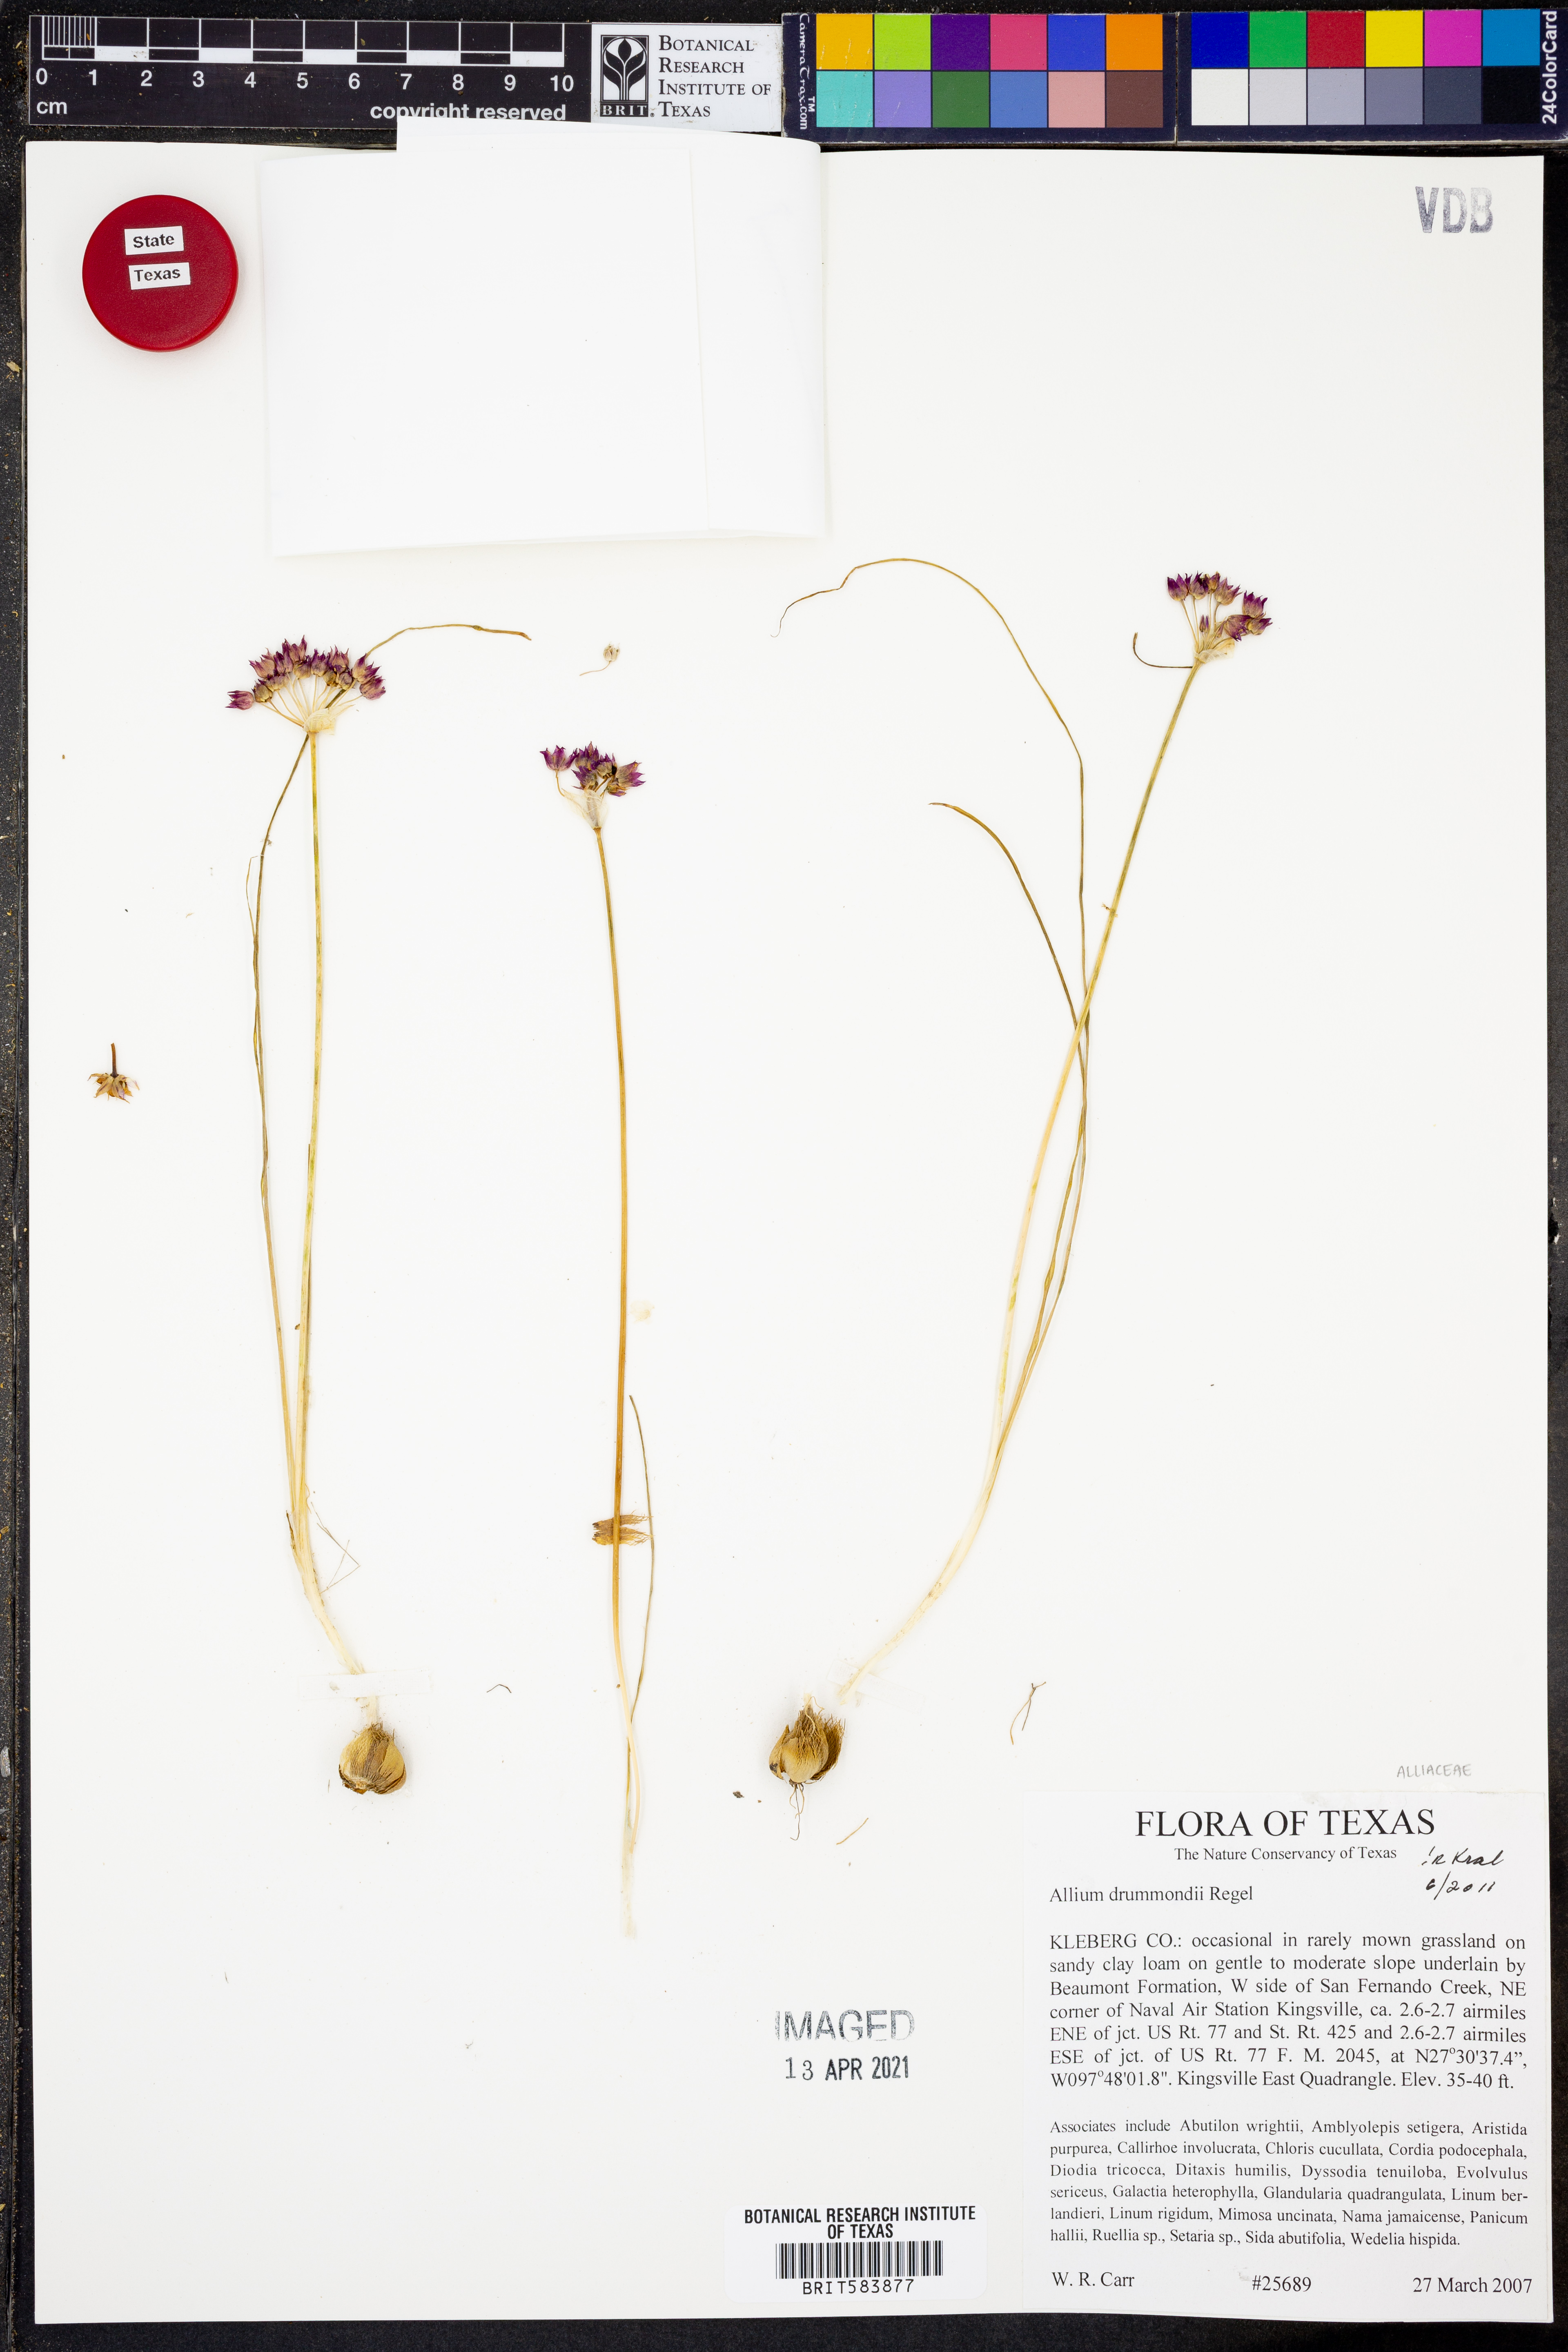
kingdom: Plantae
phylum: Tracheophyta
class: Liliopsida
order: Asparagales
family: Amaryllidaceae
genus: Allium
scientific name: Allium drummondii
